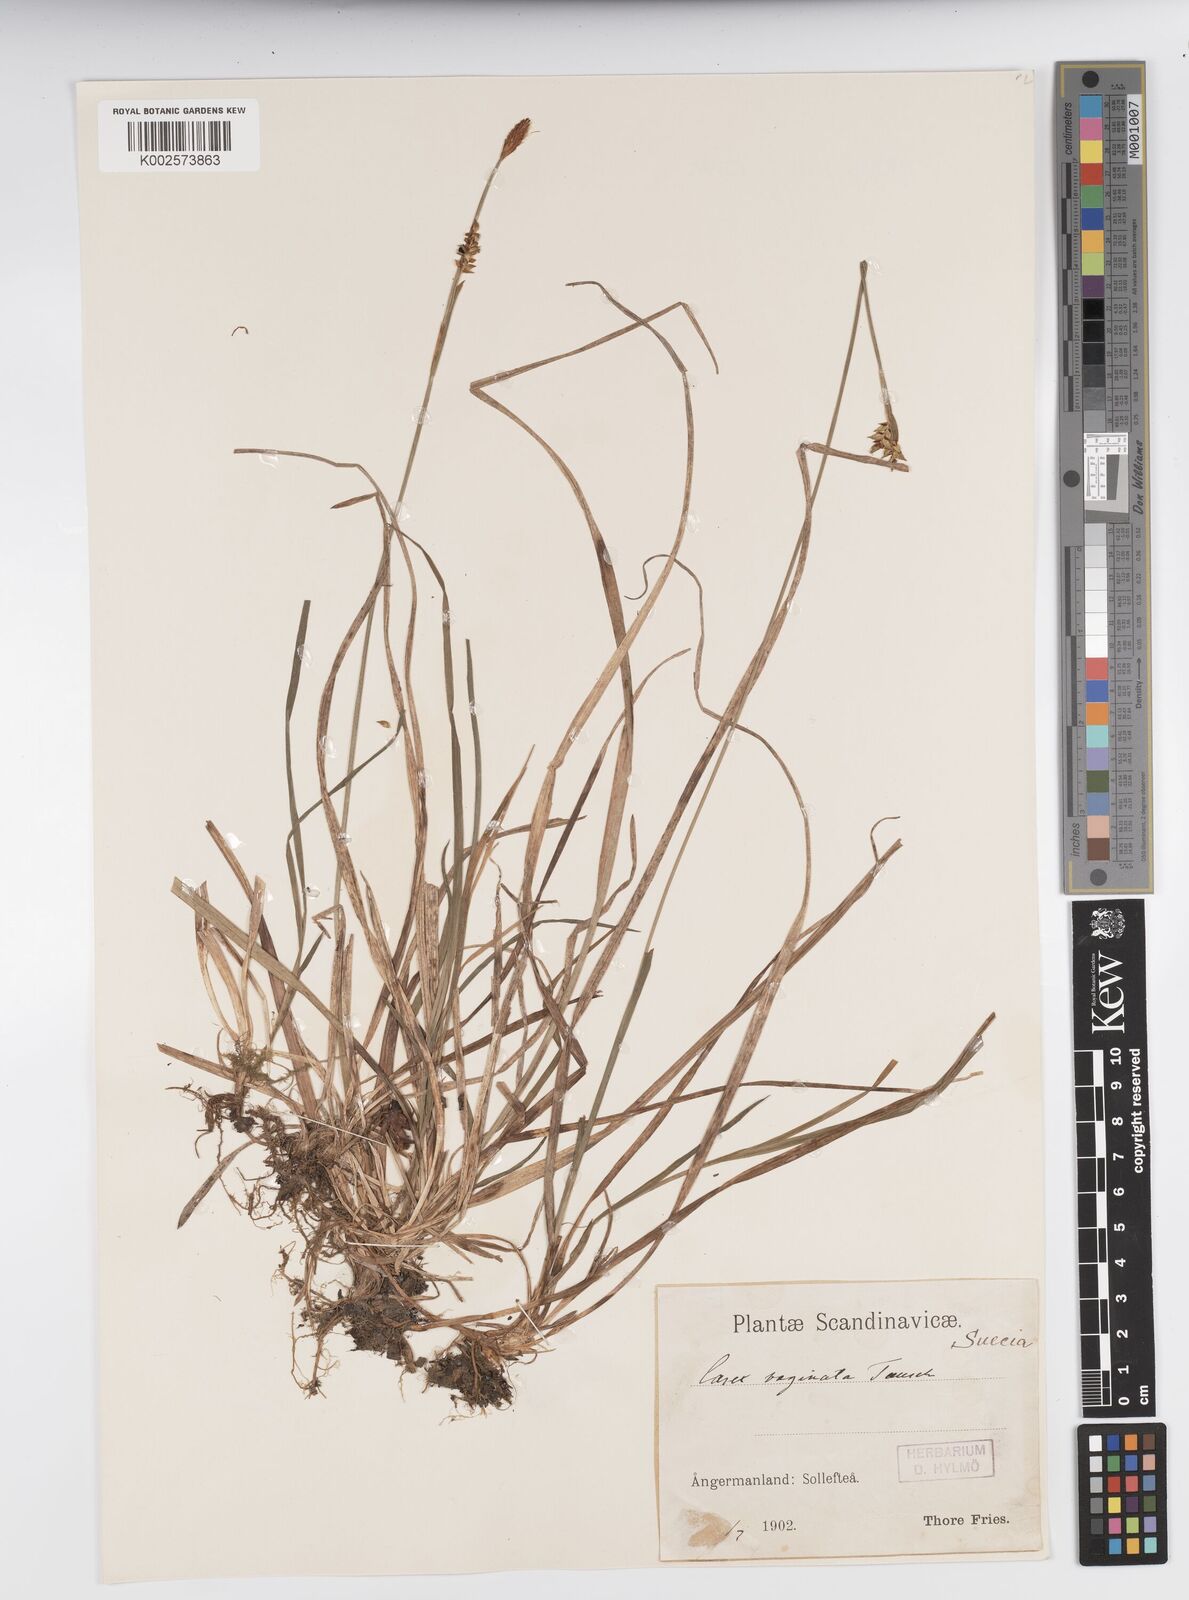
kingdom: Plantae
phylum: Tracheophyta
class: Liliopsida
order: Poales
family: Cyperaceae
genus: Carex
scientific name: Carex vaginata
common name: Sheathed sedge
